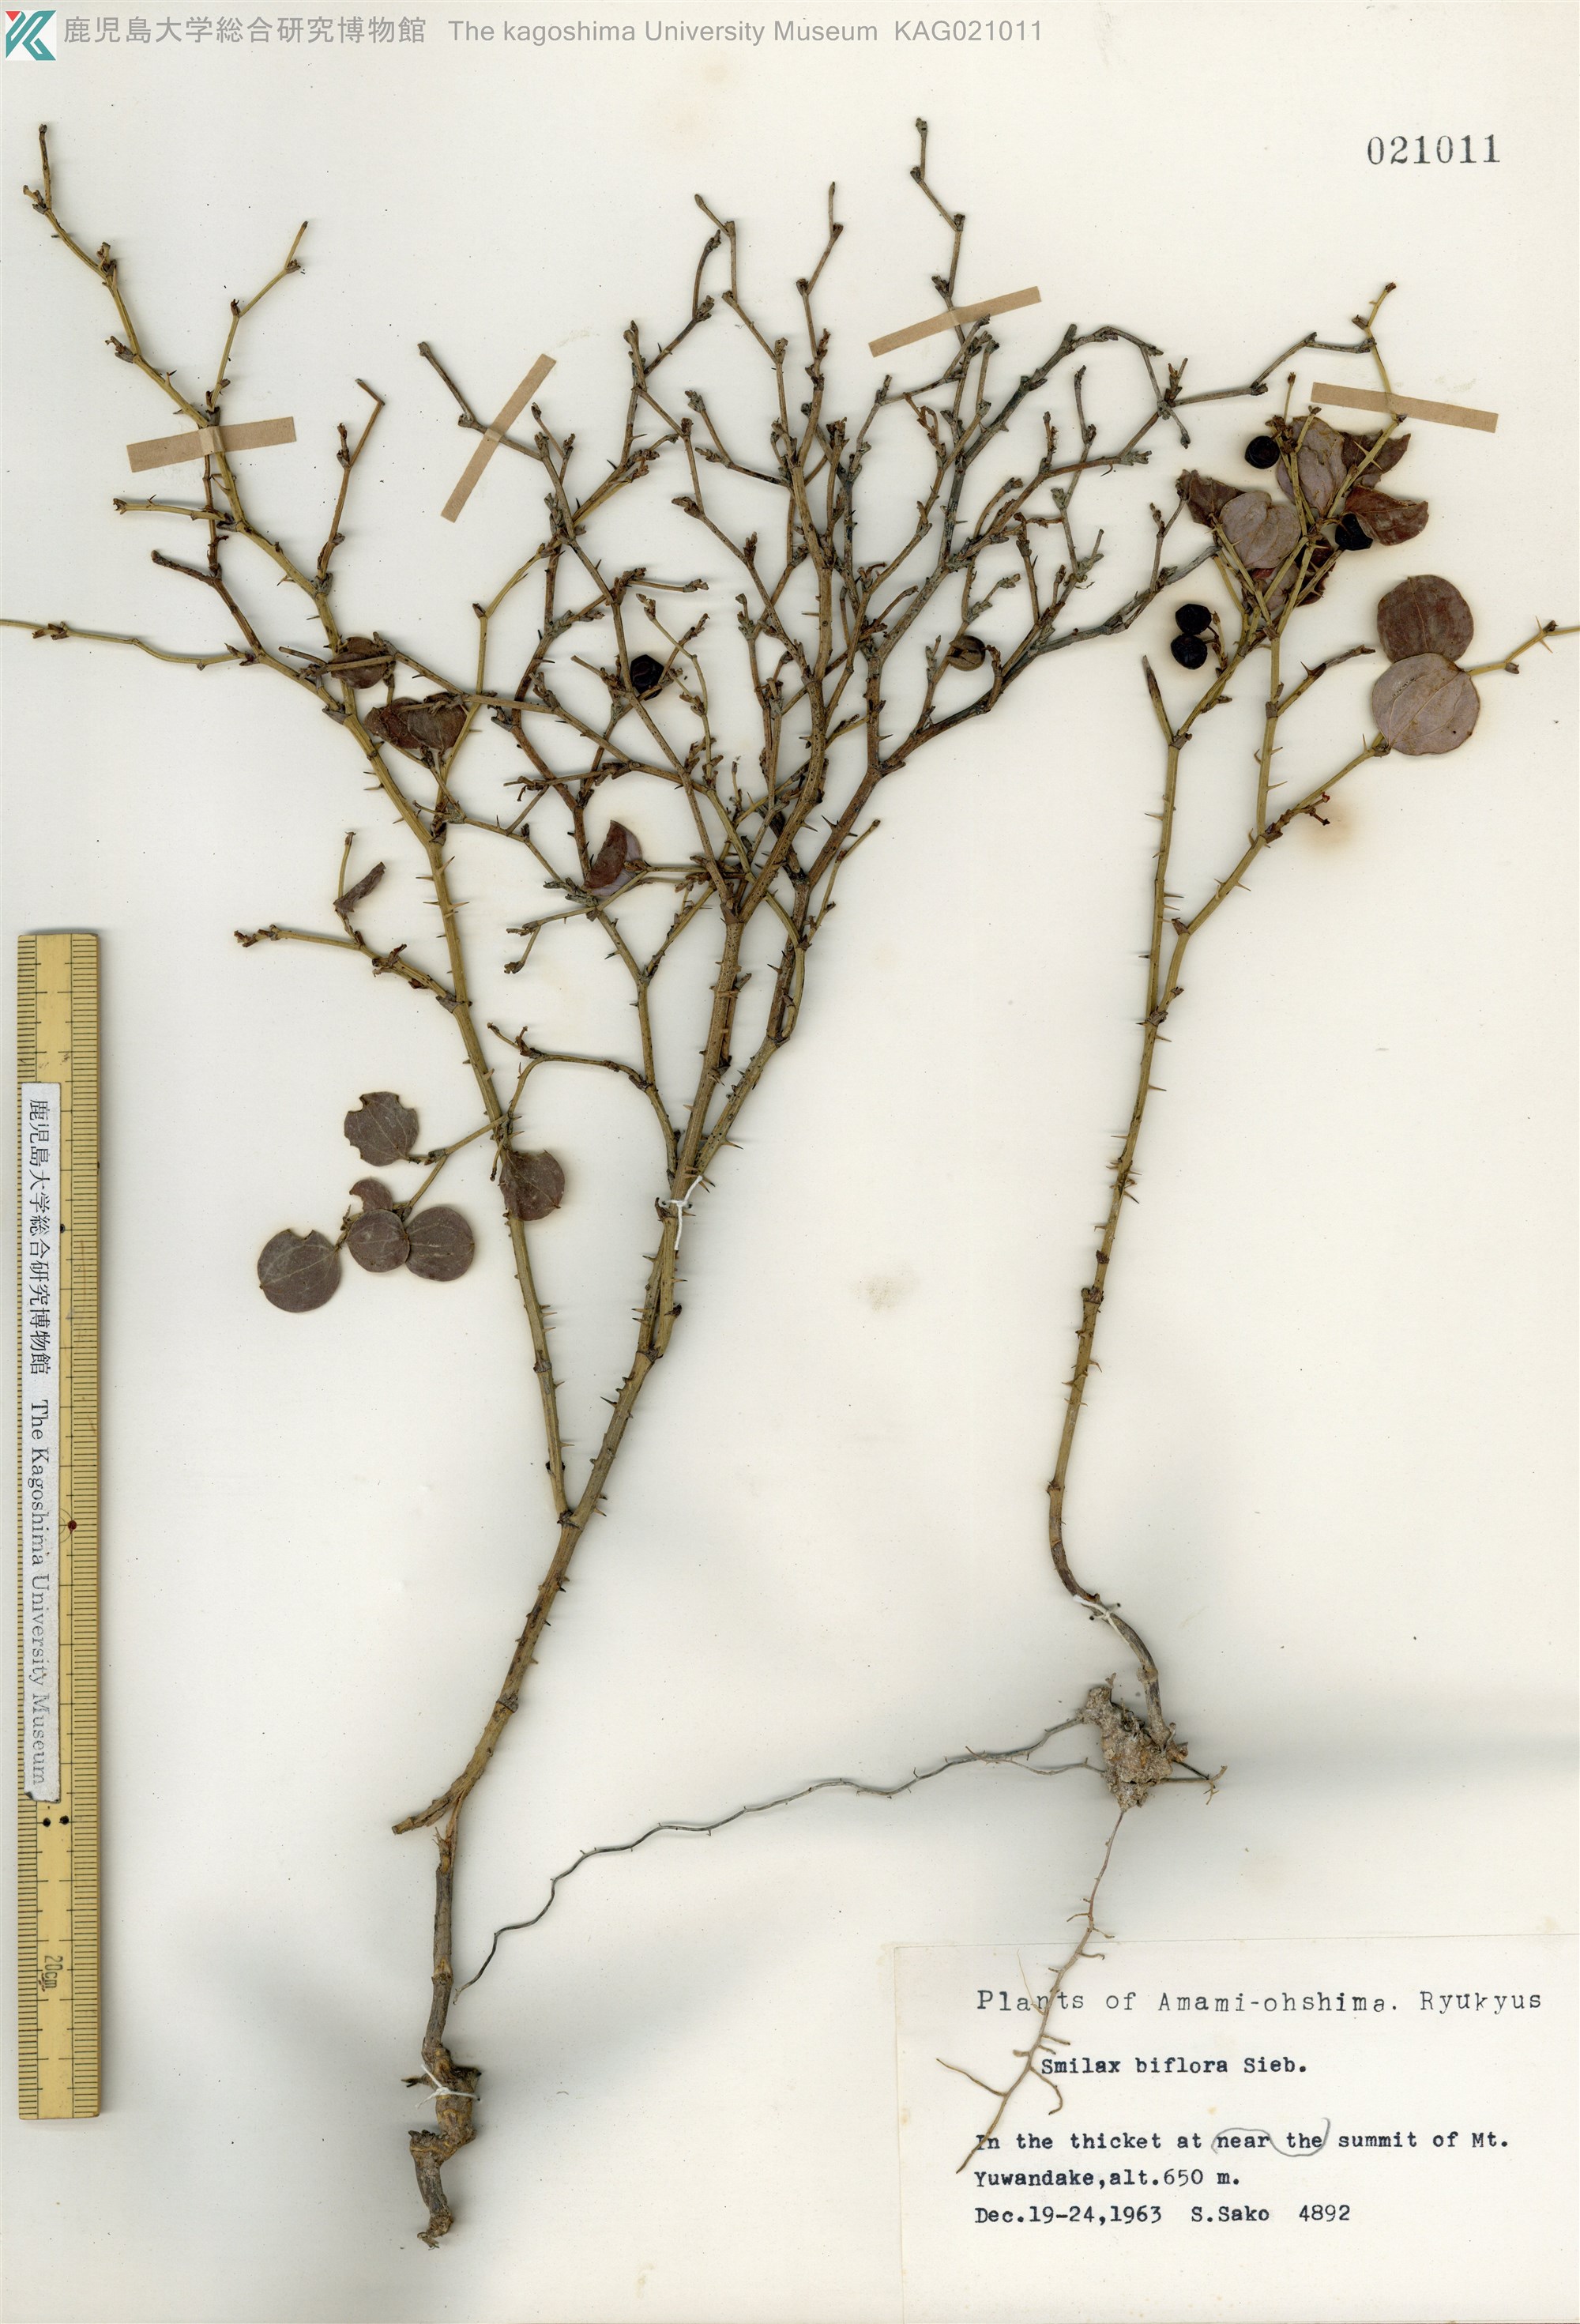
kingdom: Plantae
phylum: Tracheophyta
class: Liliopsida
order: Liliales
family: Smilacaceae
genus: Smilax
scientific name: Smilax amamiana
